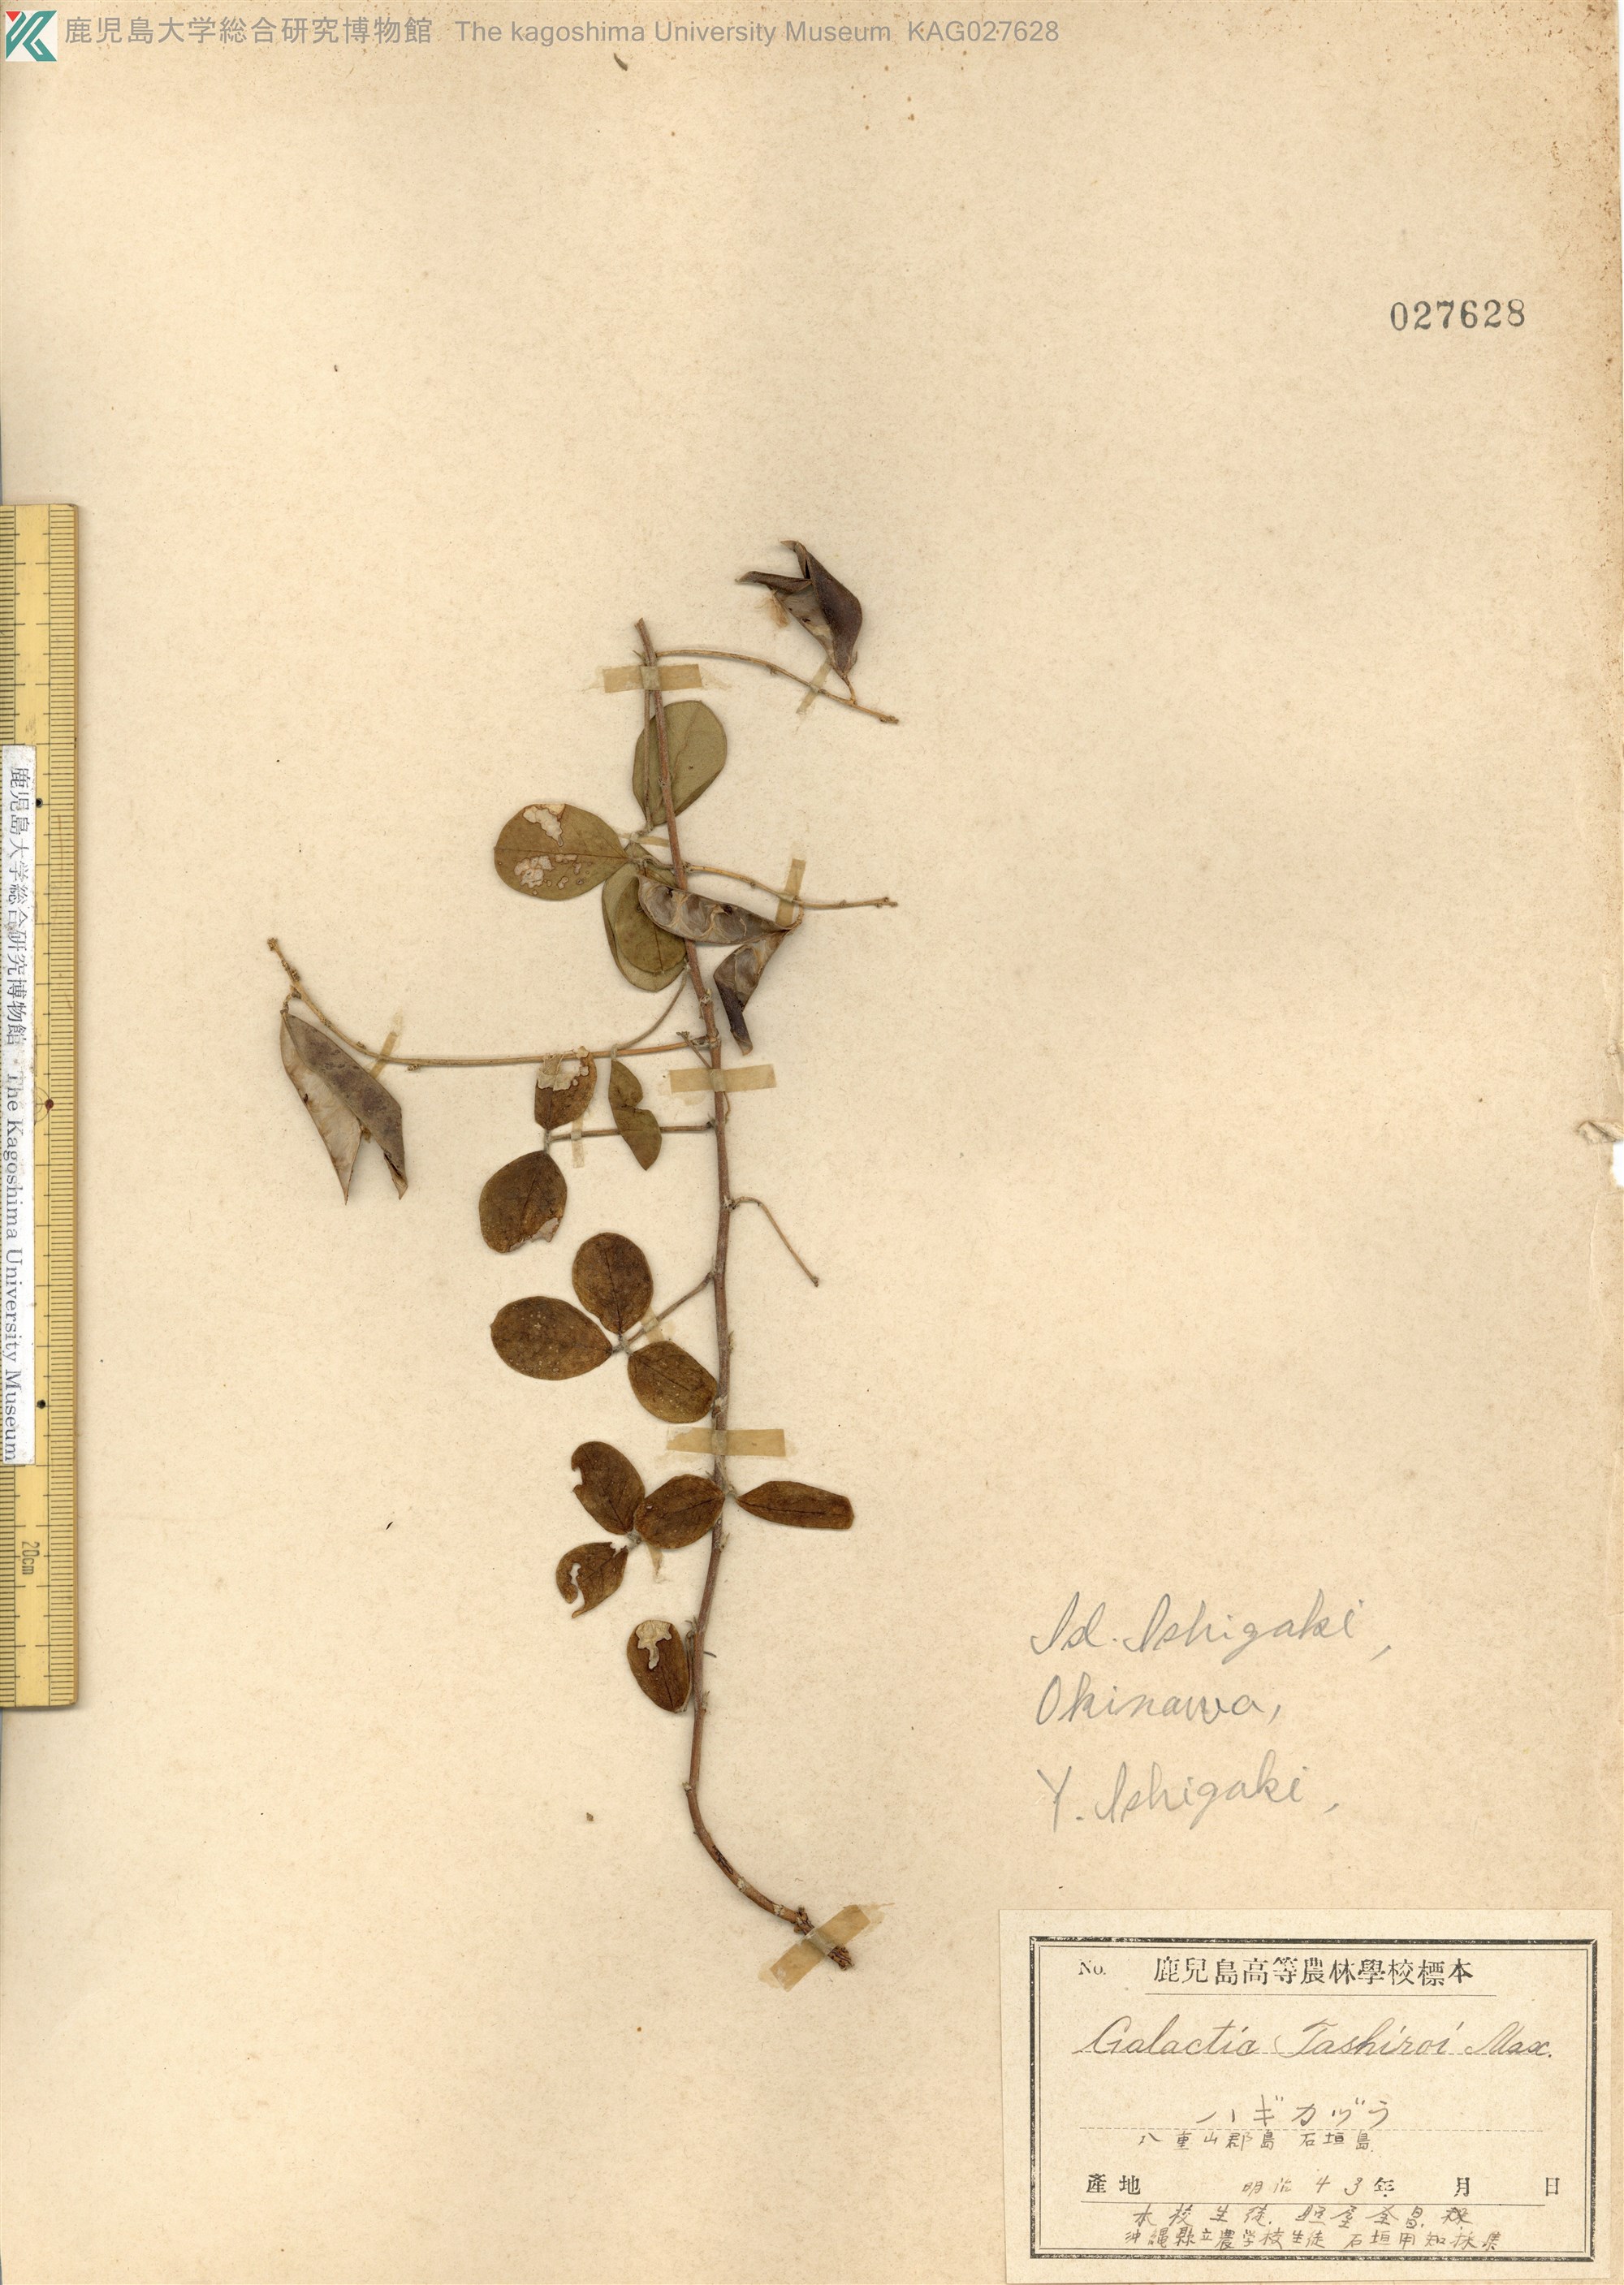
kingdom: Plantae
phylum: Tracheophyta
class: Magnoliopsida
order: Fabales
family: Fabaceae
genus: Galactia
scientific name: Galactia tashiroi
